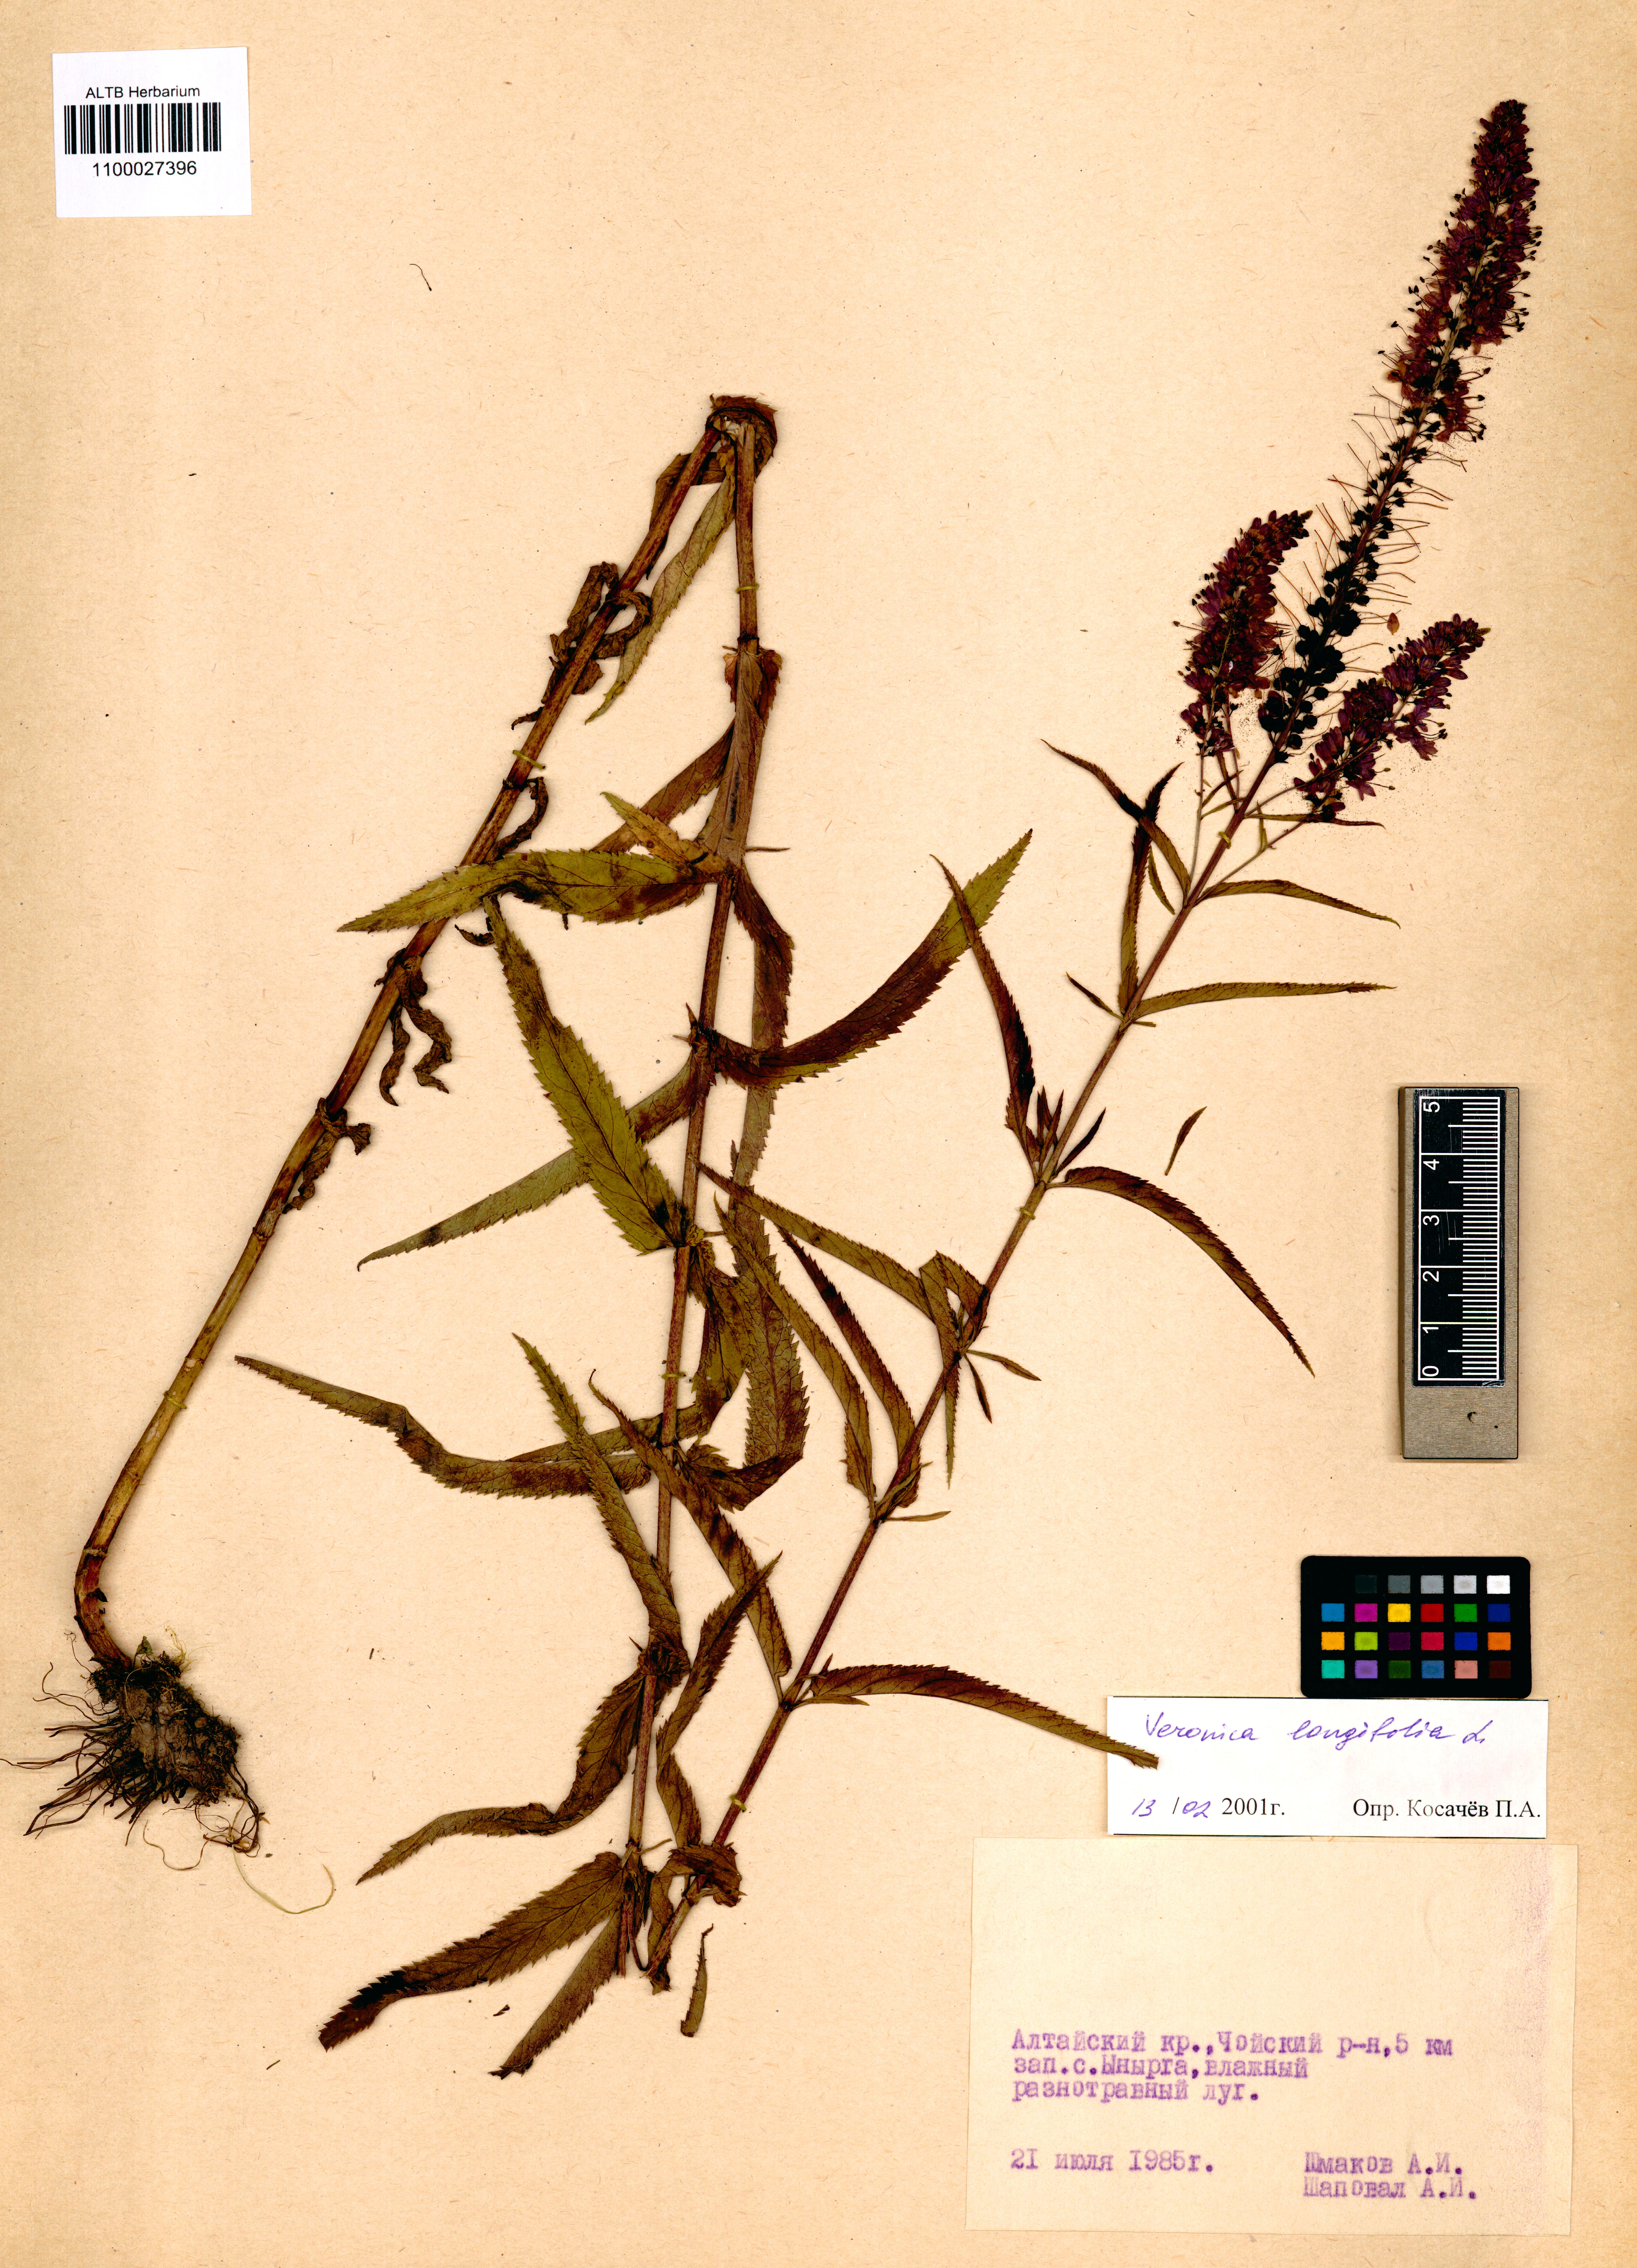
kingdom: Plantae
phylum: Tracheophyta
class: Magnoliopsida
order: Lamiales
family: Plantaginaceae
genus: Veronica
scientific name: Veronica longifolia
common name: Garden speedwell
